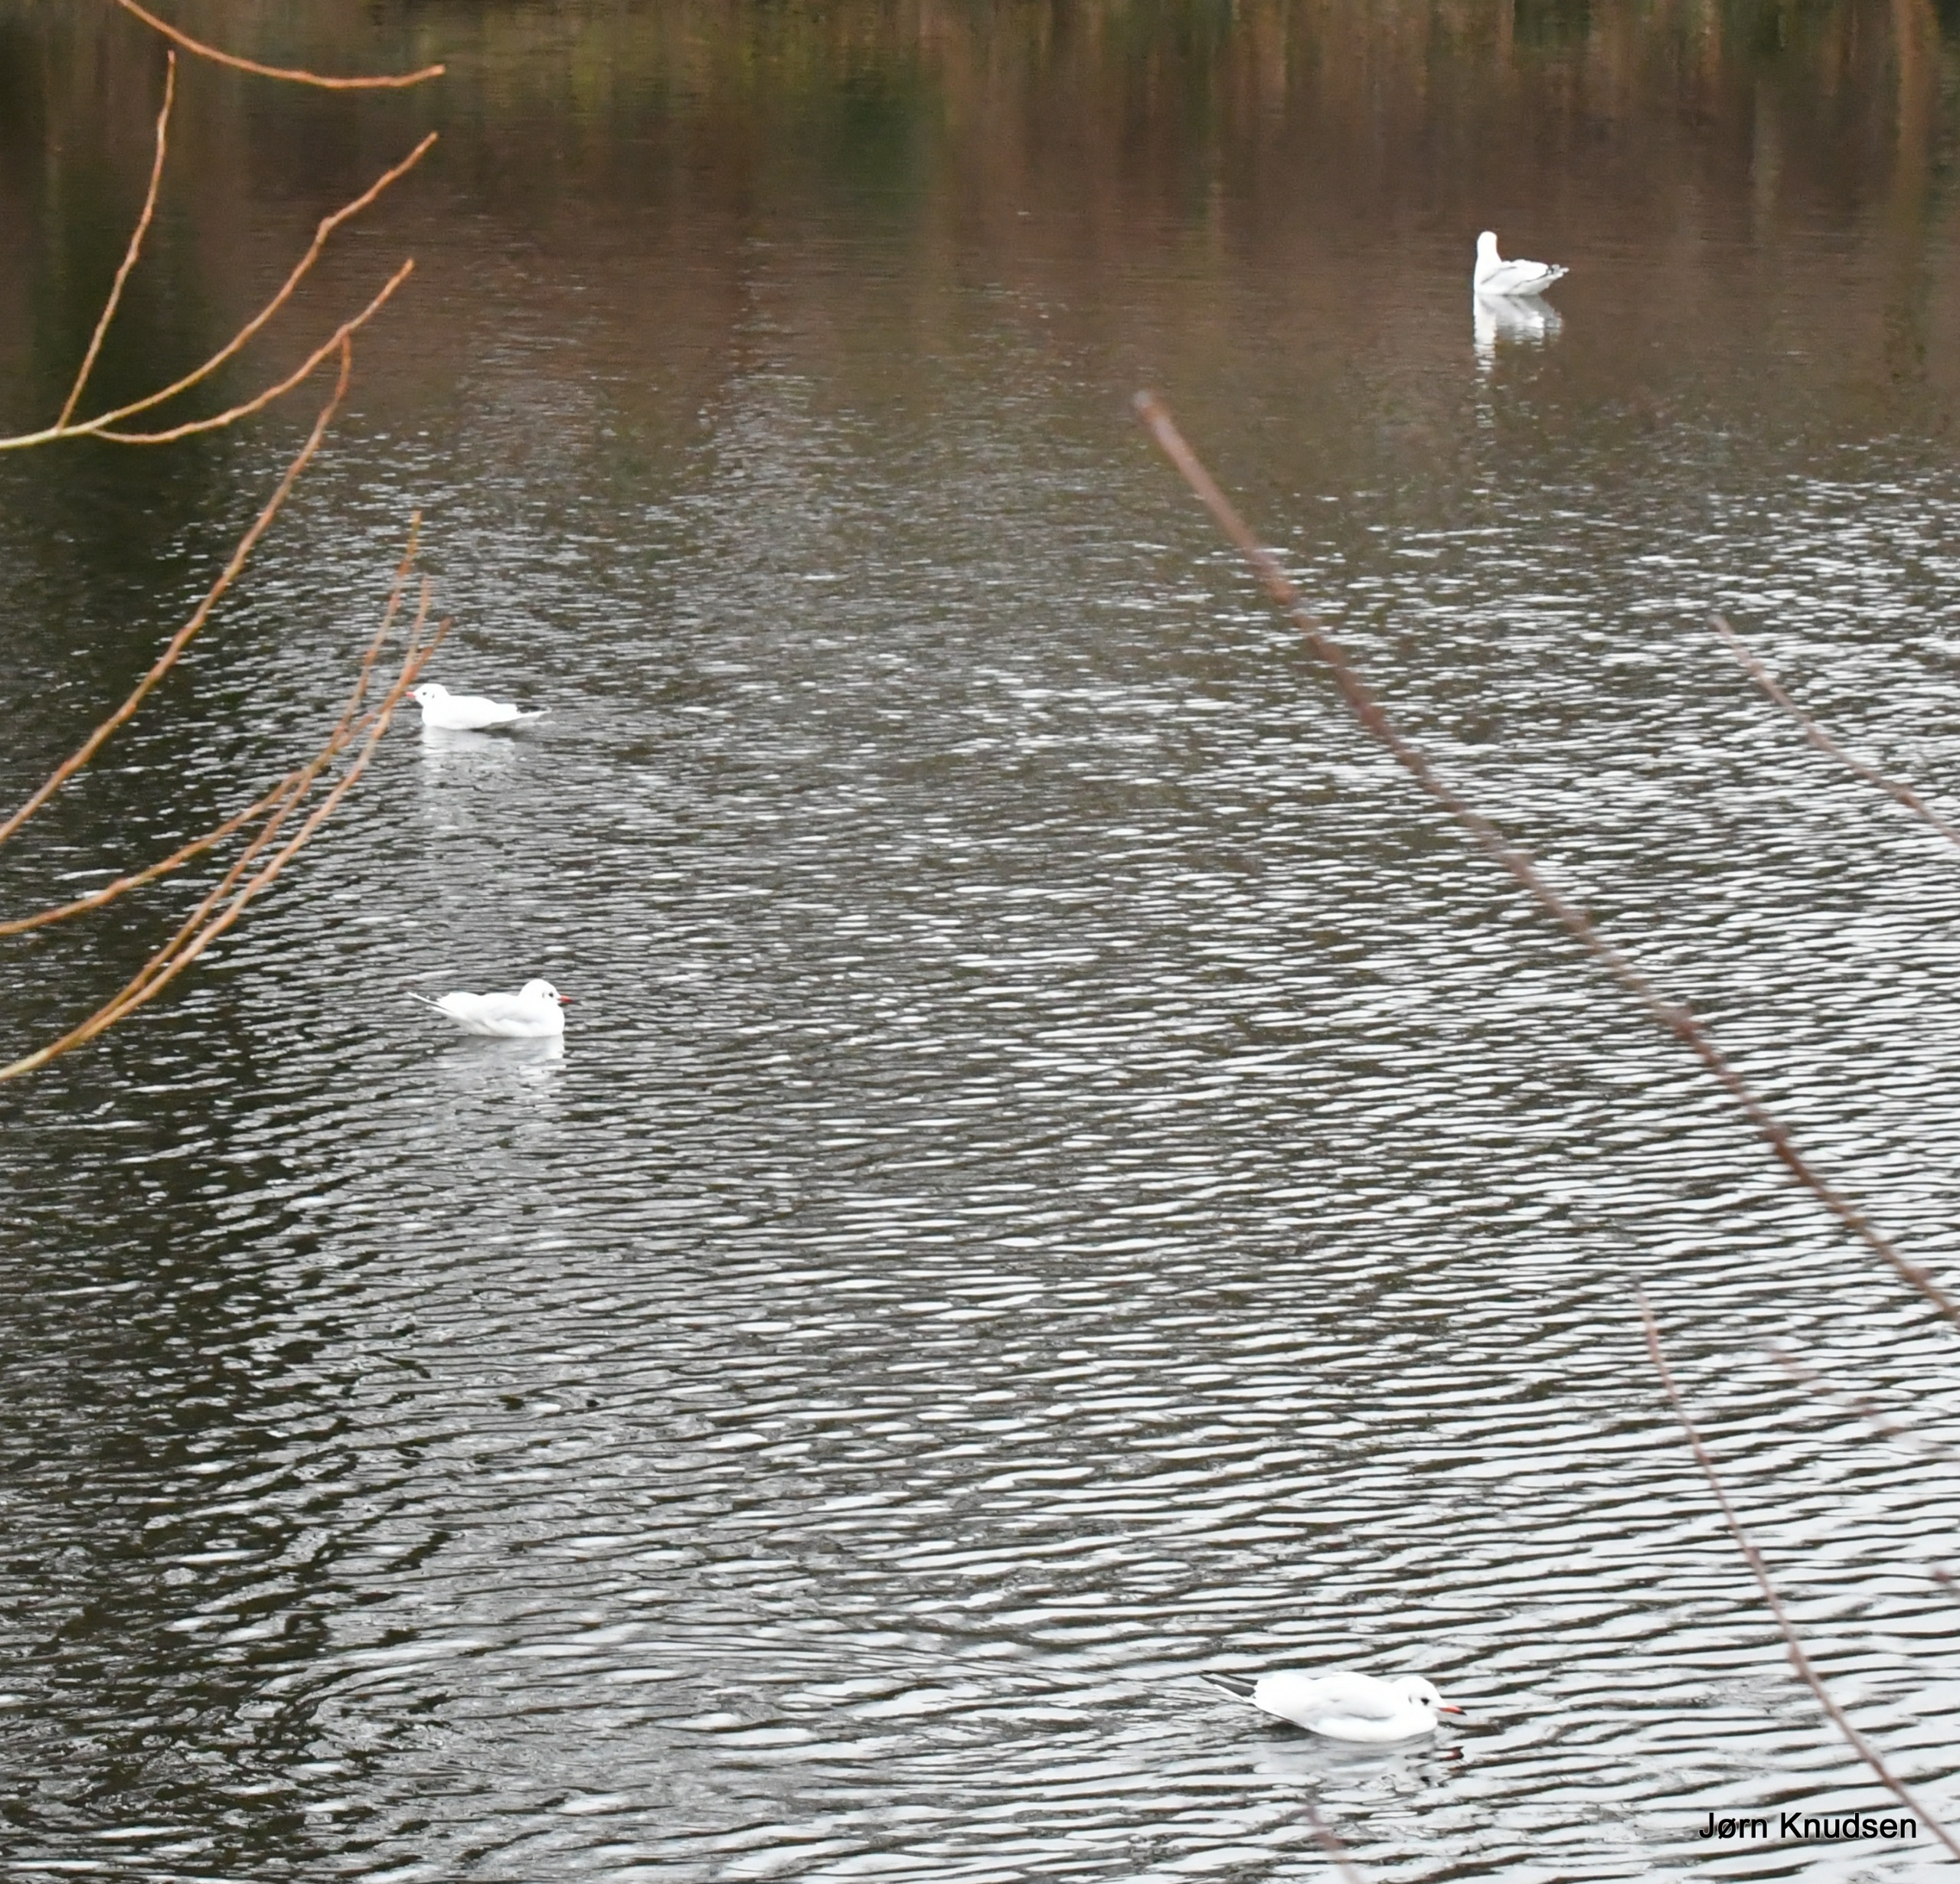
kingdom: Animalia
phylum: Chordata
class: Aves
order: Charadriiformes
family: Laridae
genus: Chroicocephalus
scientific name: Chroicocephalus ridibundus
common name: Hættemåge
